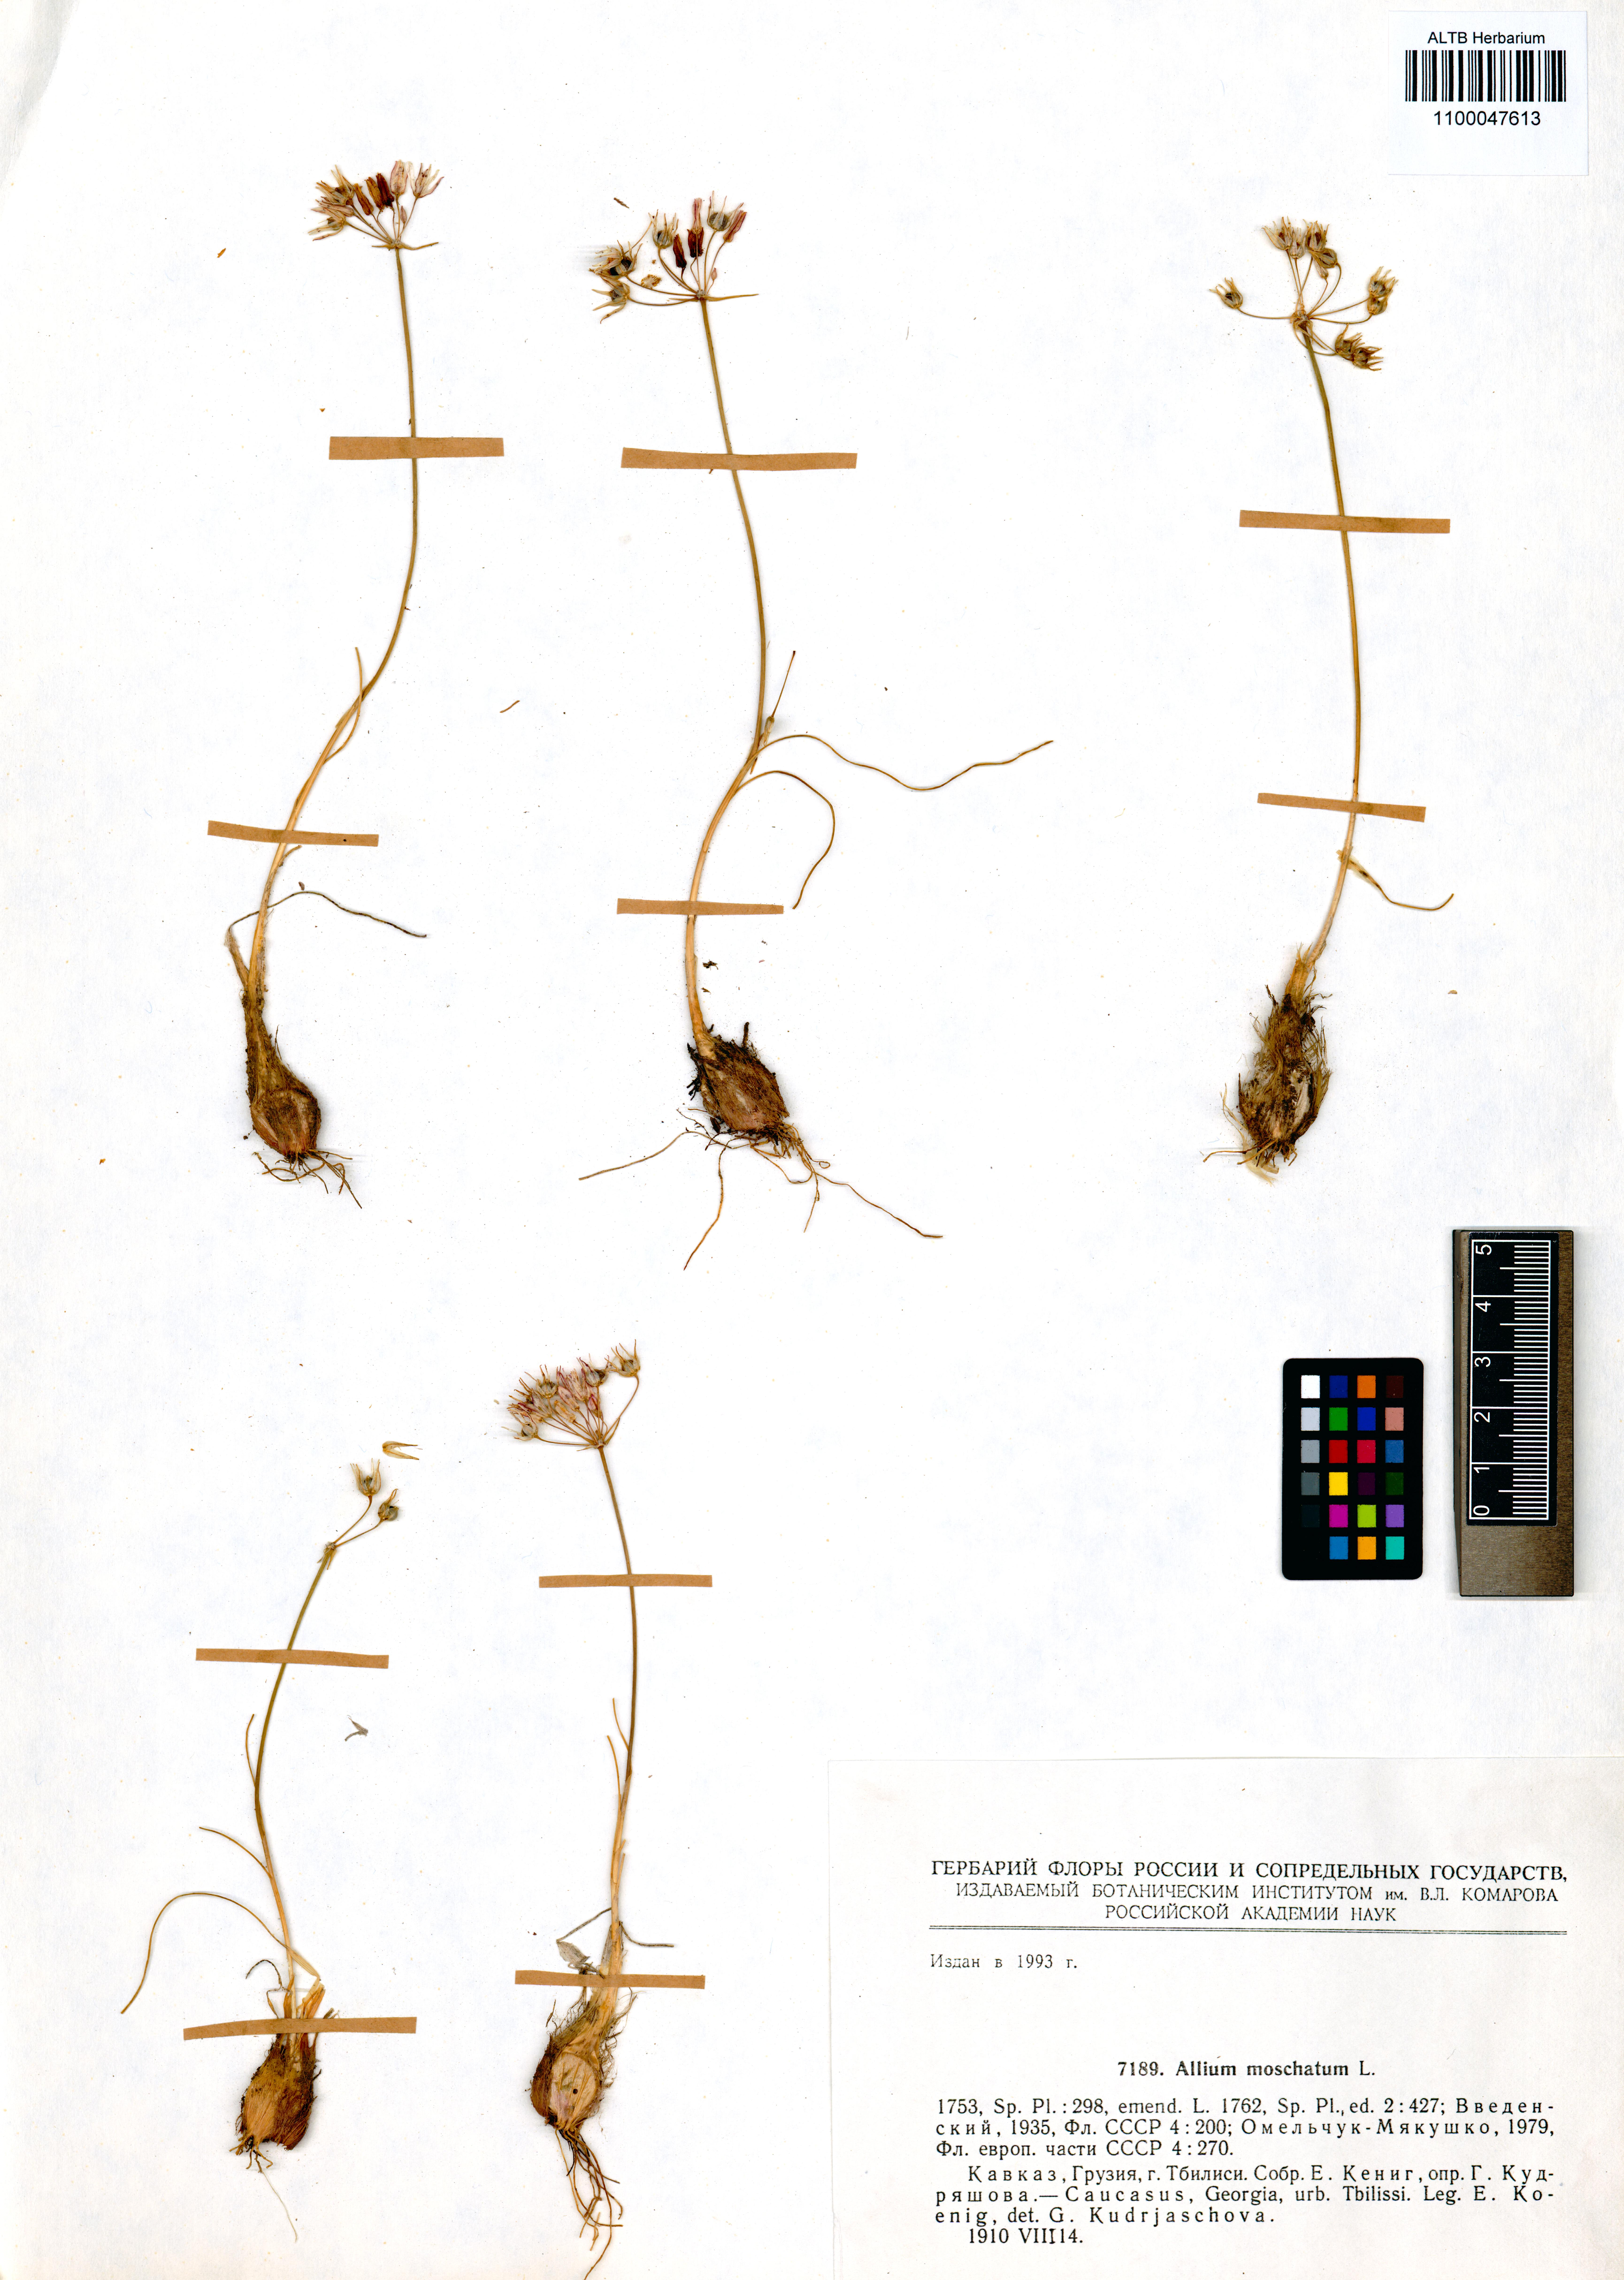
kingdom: Plantae
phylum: Tracheophyta
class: Liliopsida
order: Asparagales
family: Amaryllidaceae
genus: Allium
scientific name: Allium moschatum
